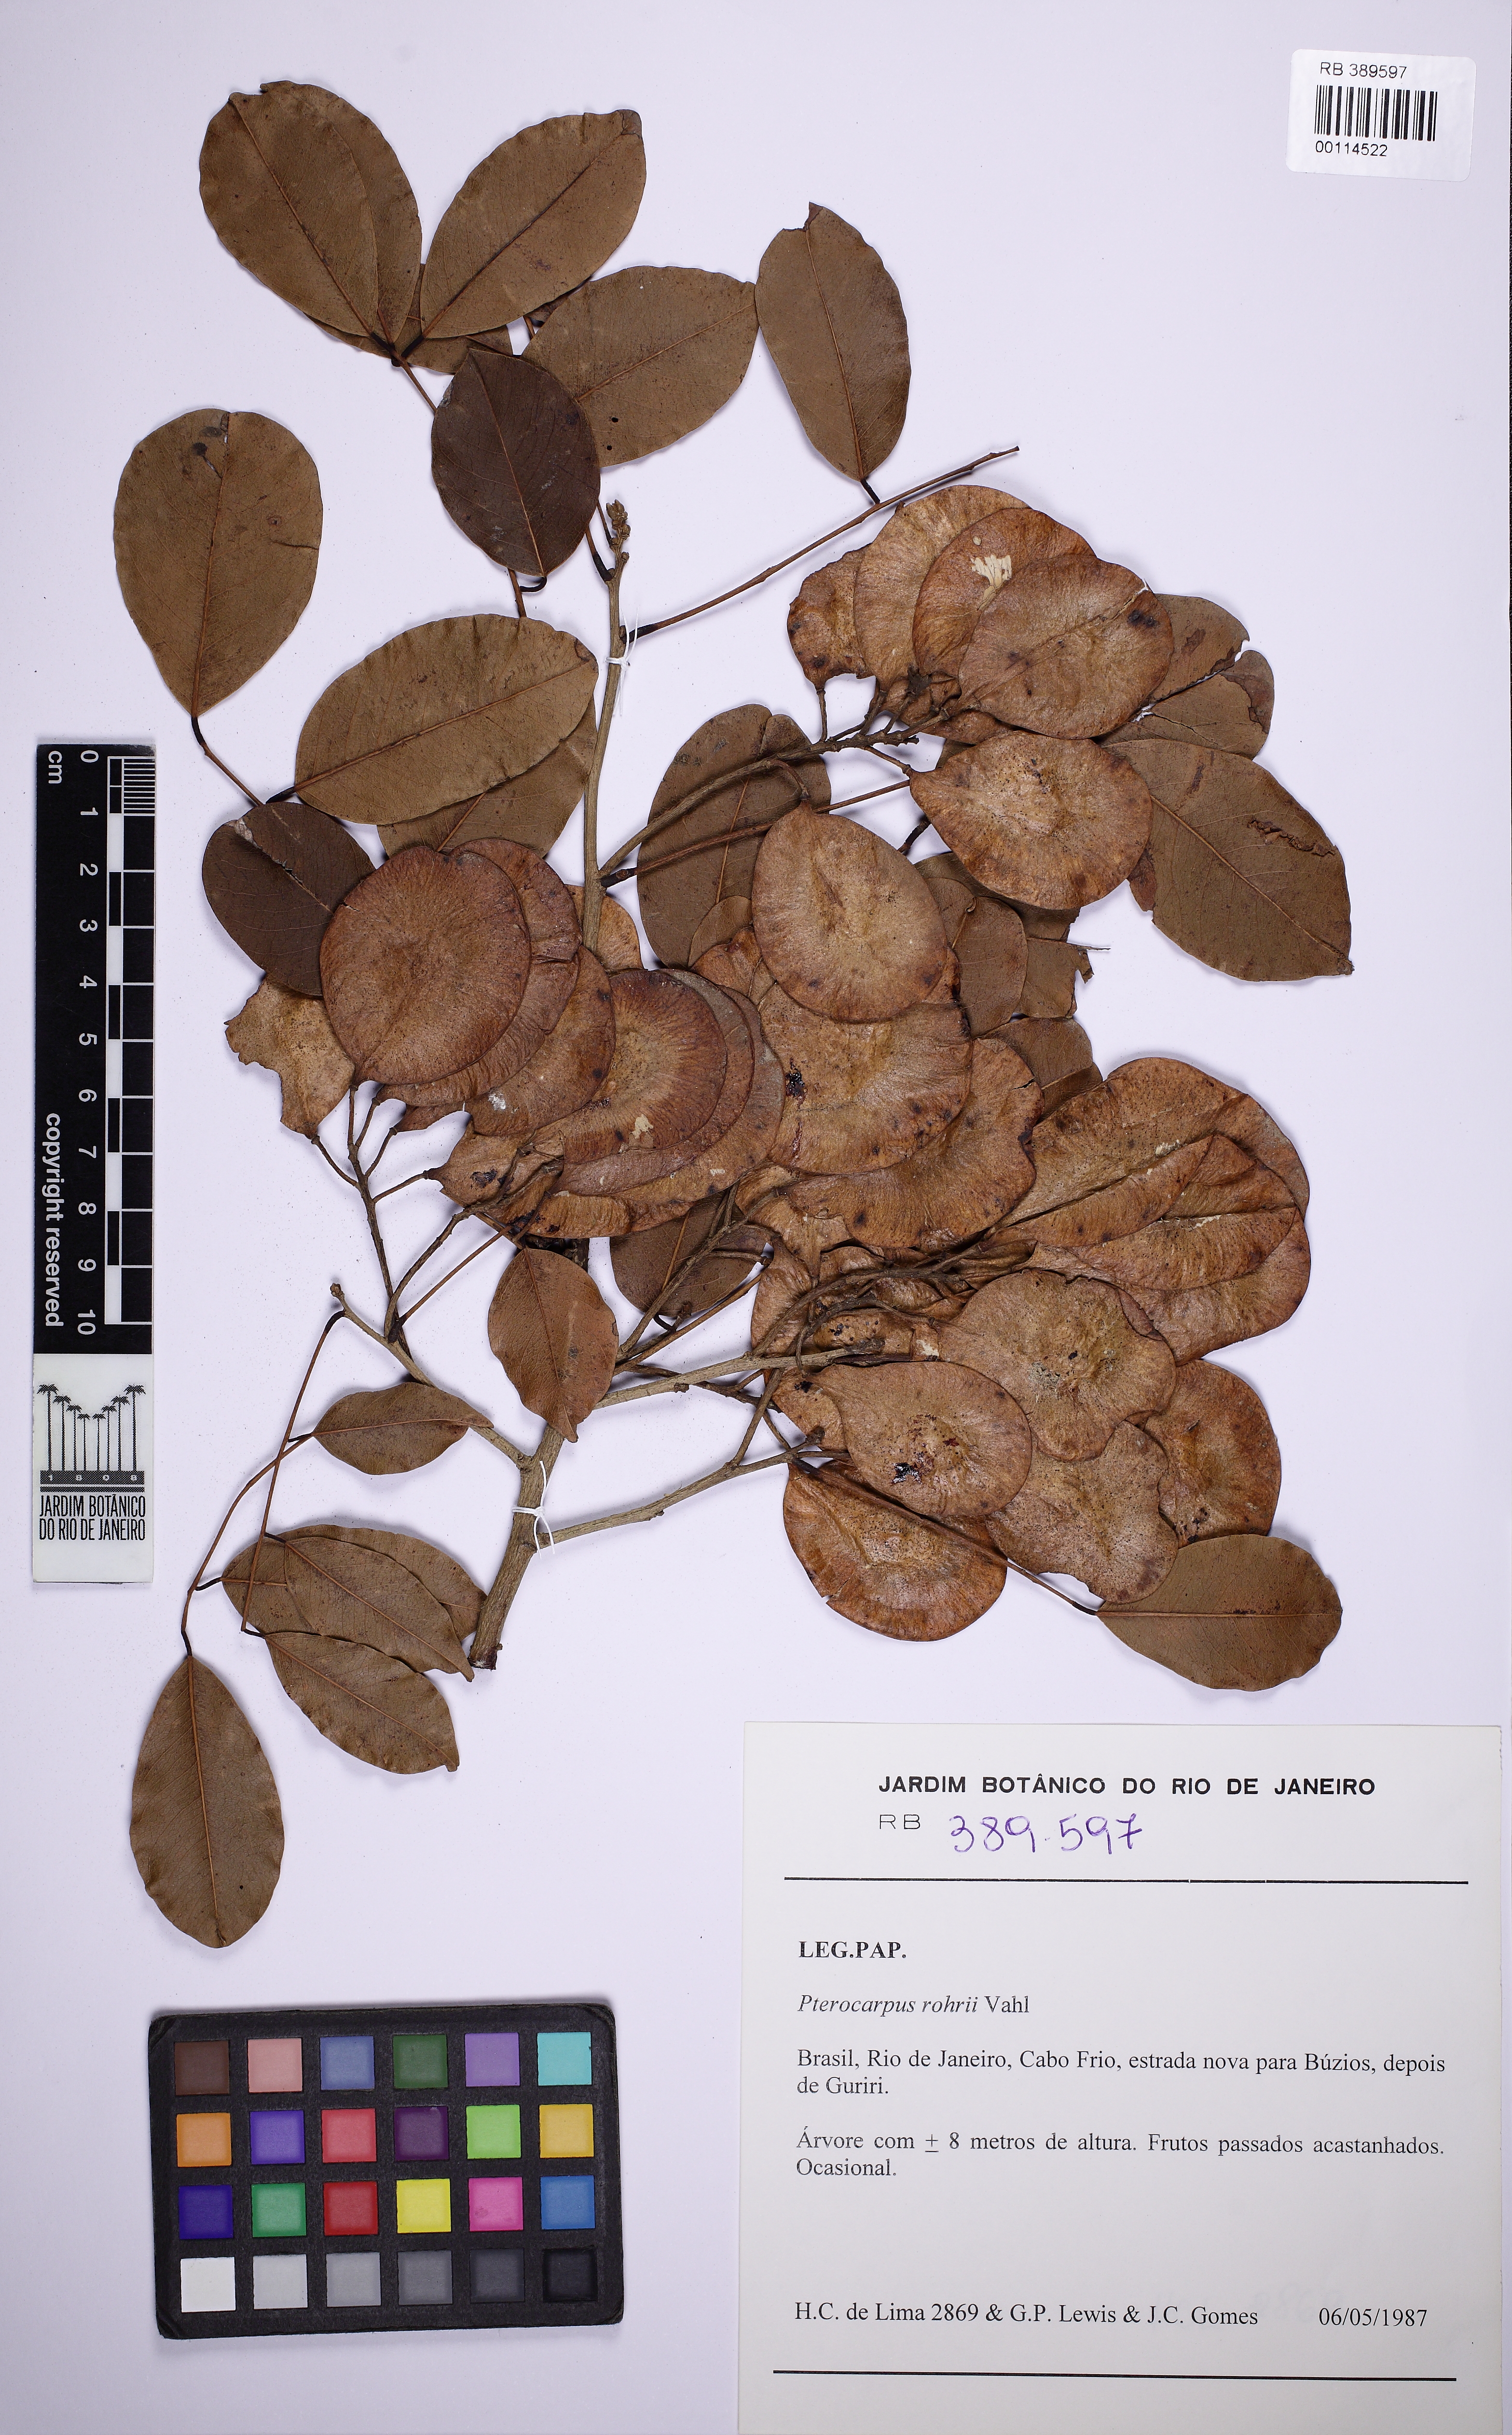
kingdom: Plantae
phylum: Tracheophyta
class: Magnoliopsida
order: Fabales
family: Fabaceae
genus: Pterocarpus
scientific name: Pterocarpus rohrii
